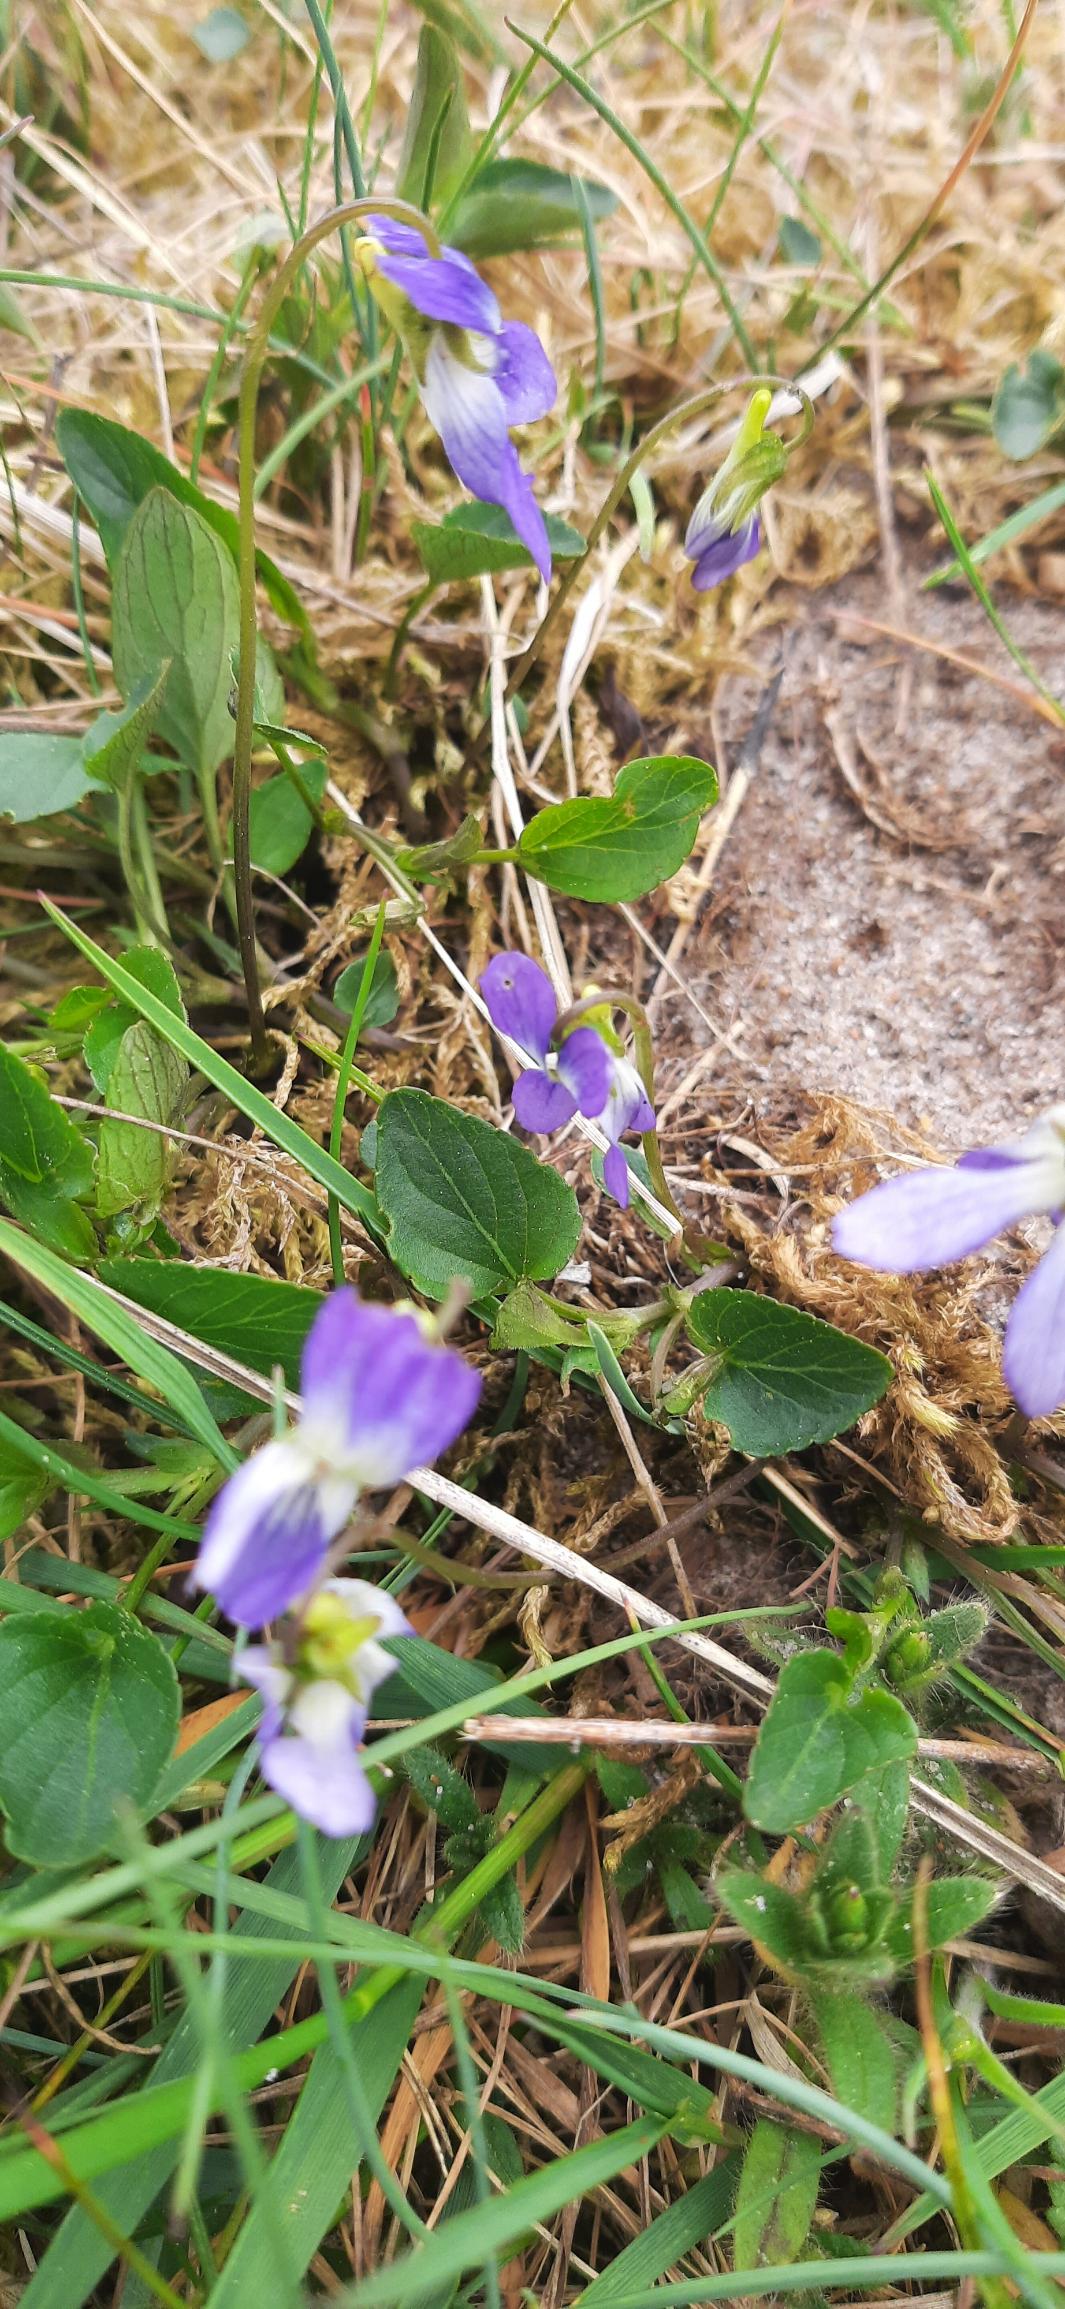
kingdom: Plantae
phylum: Tracheophyta
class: Magnoliopsida
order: Malpighiales
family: Violaceae
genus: Viola
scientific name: Viola canina
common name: Hunde-viol
